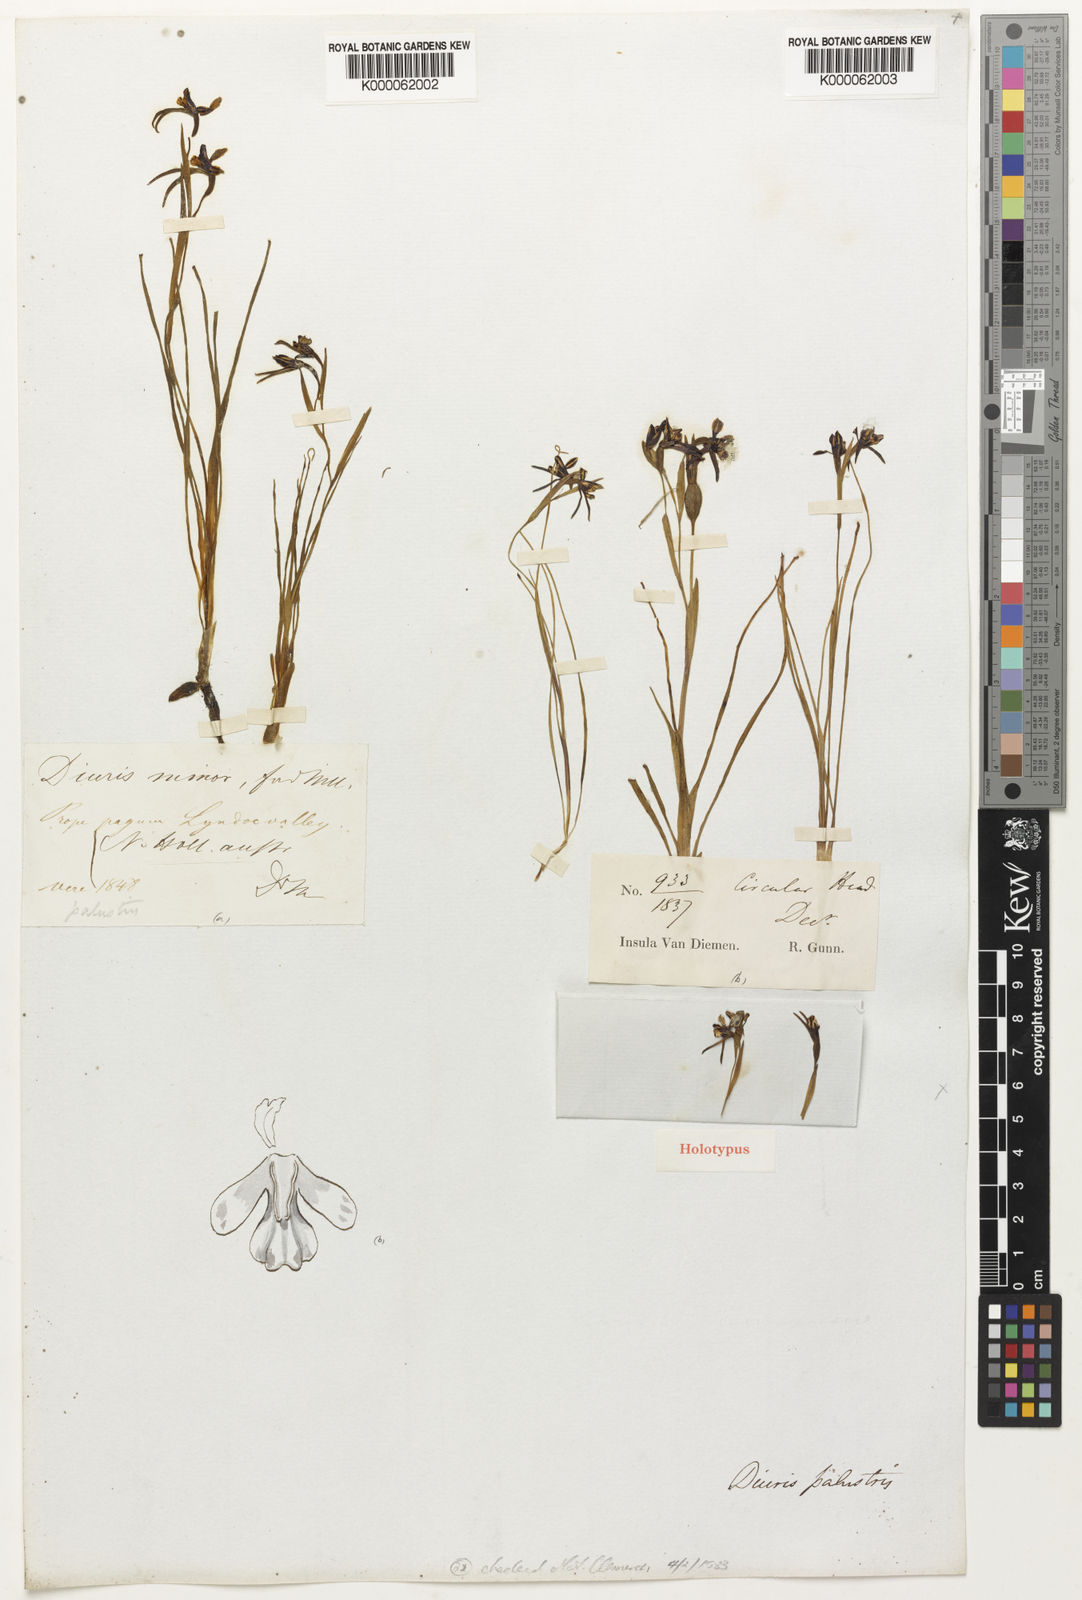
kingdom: Plantae
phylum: Tracheophyta
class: Liliopsida
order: Asparagales
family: Orchidaceae
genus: Diuris
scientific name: Diuris palustris
